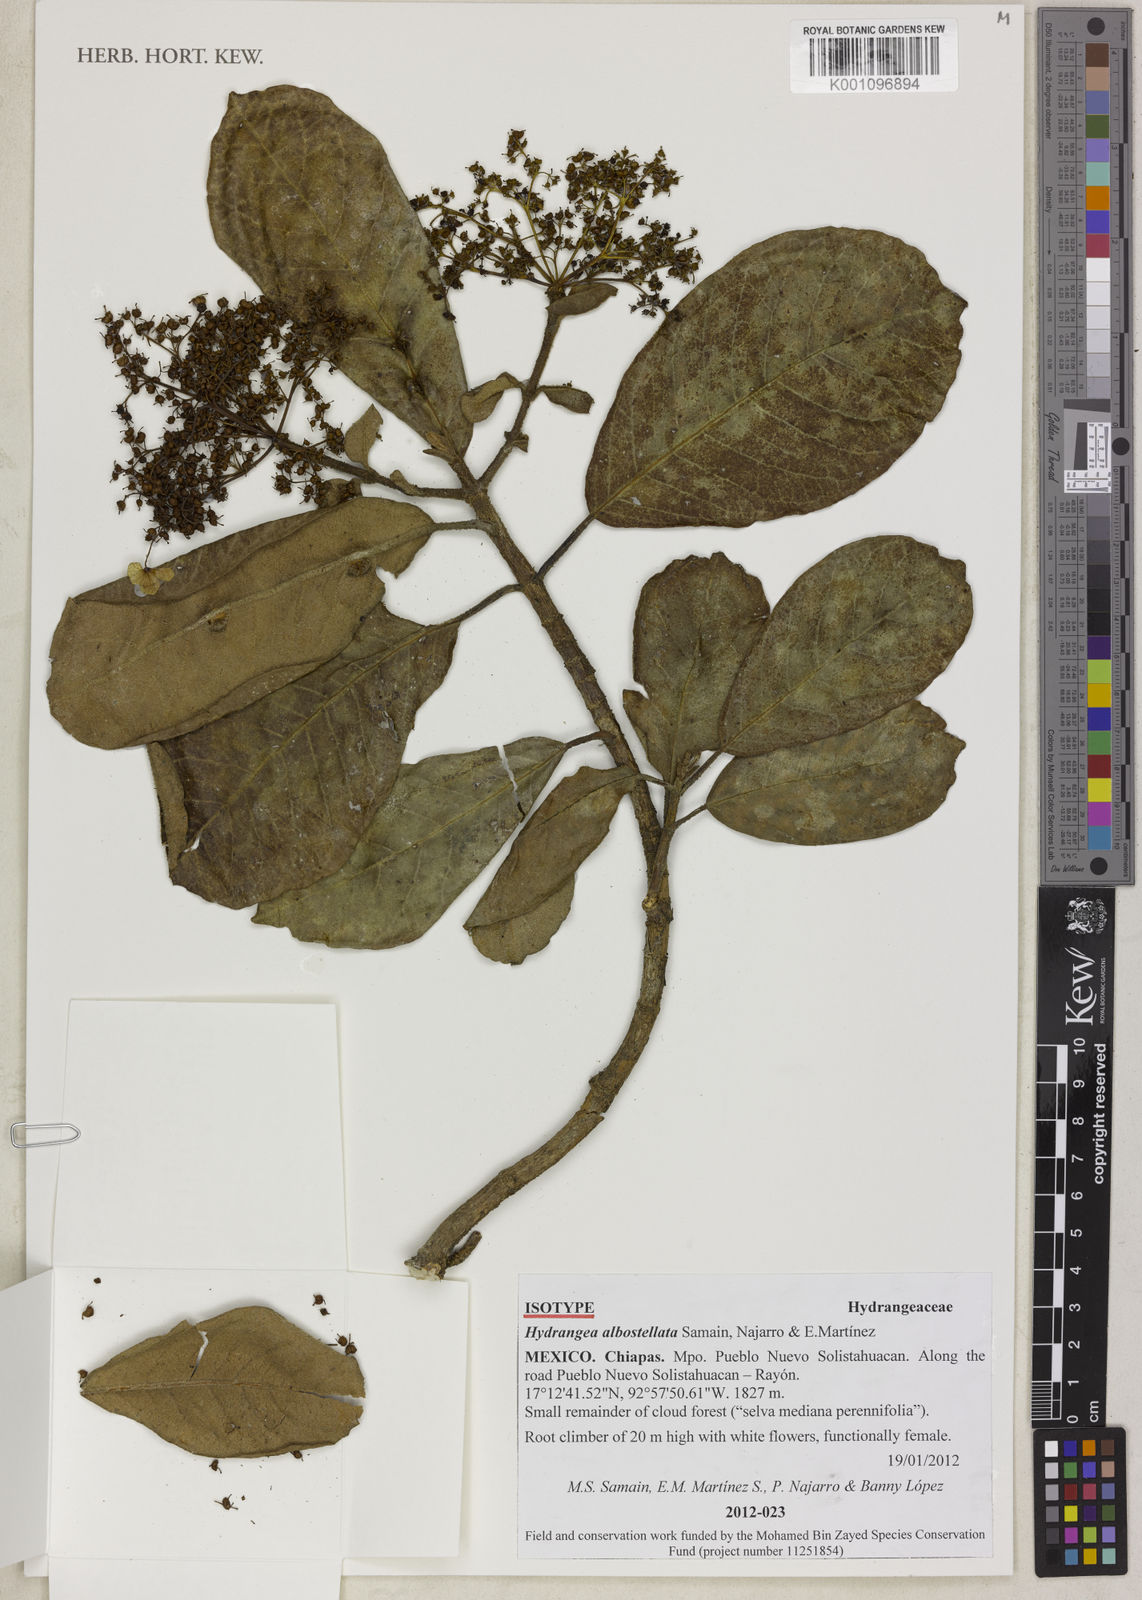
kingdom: Plantae
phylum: Tracheophyta
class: Magnoliopsida
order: Cornales
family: Hydrangeaceae
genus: Hydrangea
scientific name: Hydrangea
